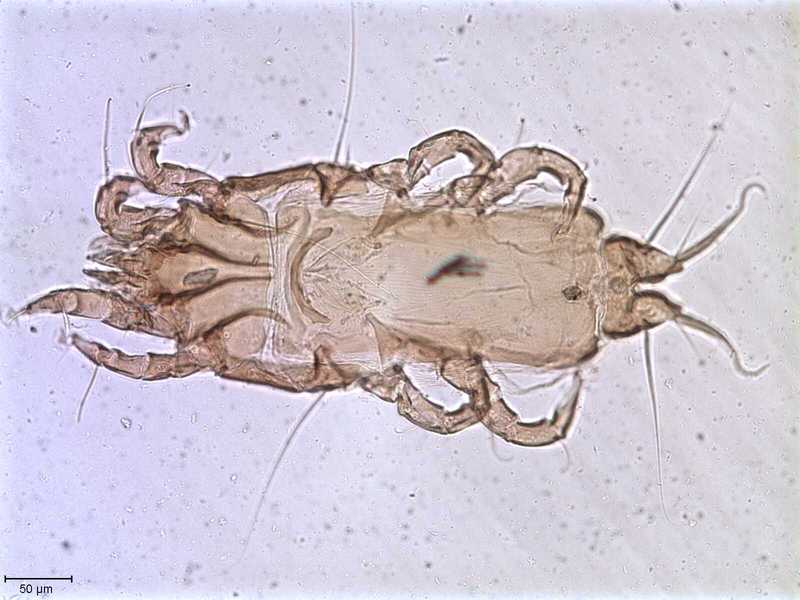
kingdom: Animalia
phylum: Arthropoda
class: Arachnida
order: Sarcoptiformes
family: Proctophyllodidae
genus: Proctophyllodes
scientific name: Proctophyllodes
